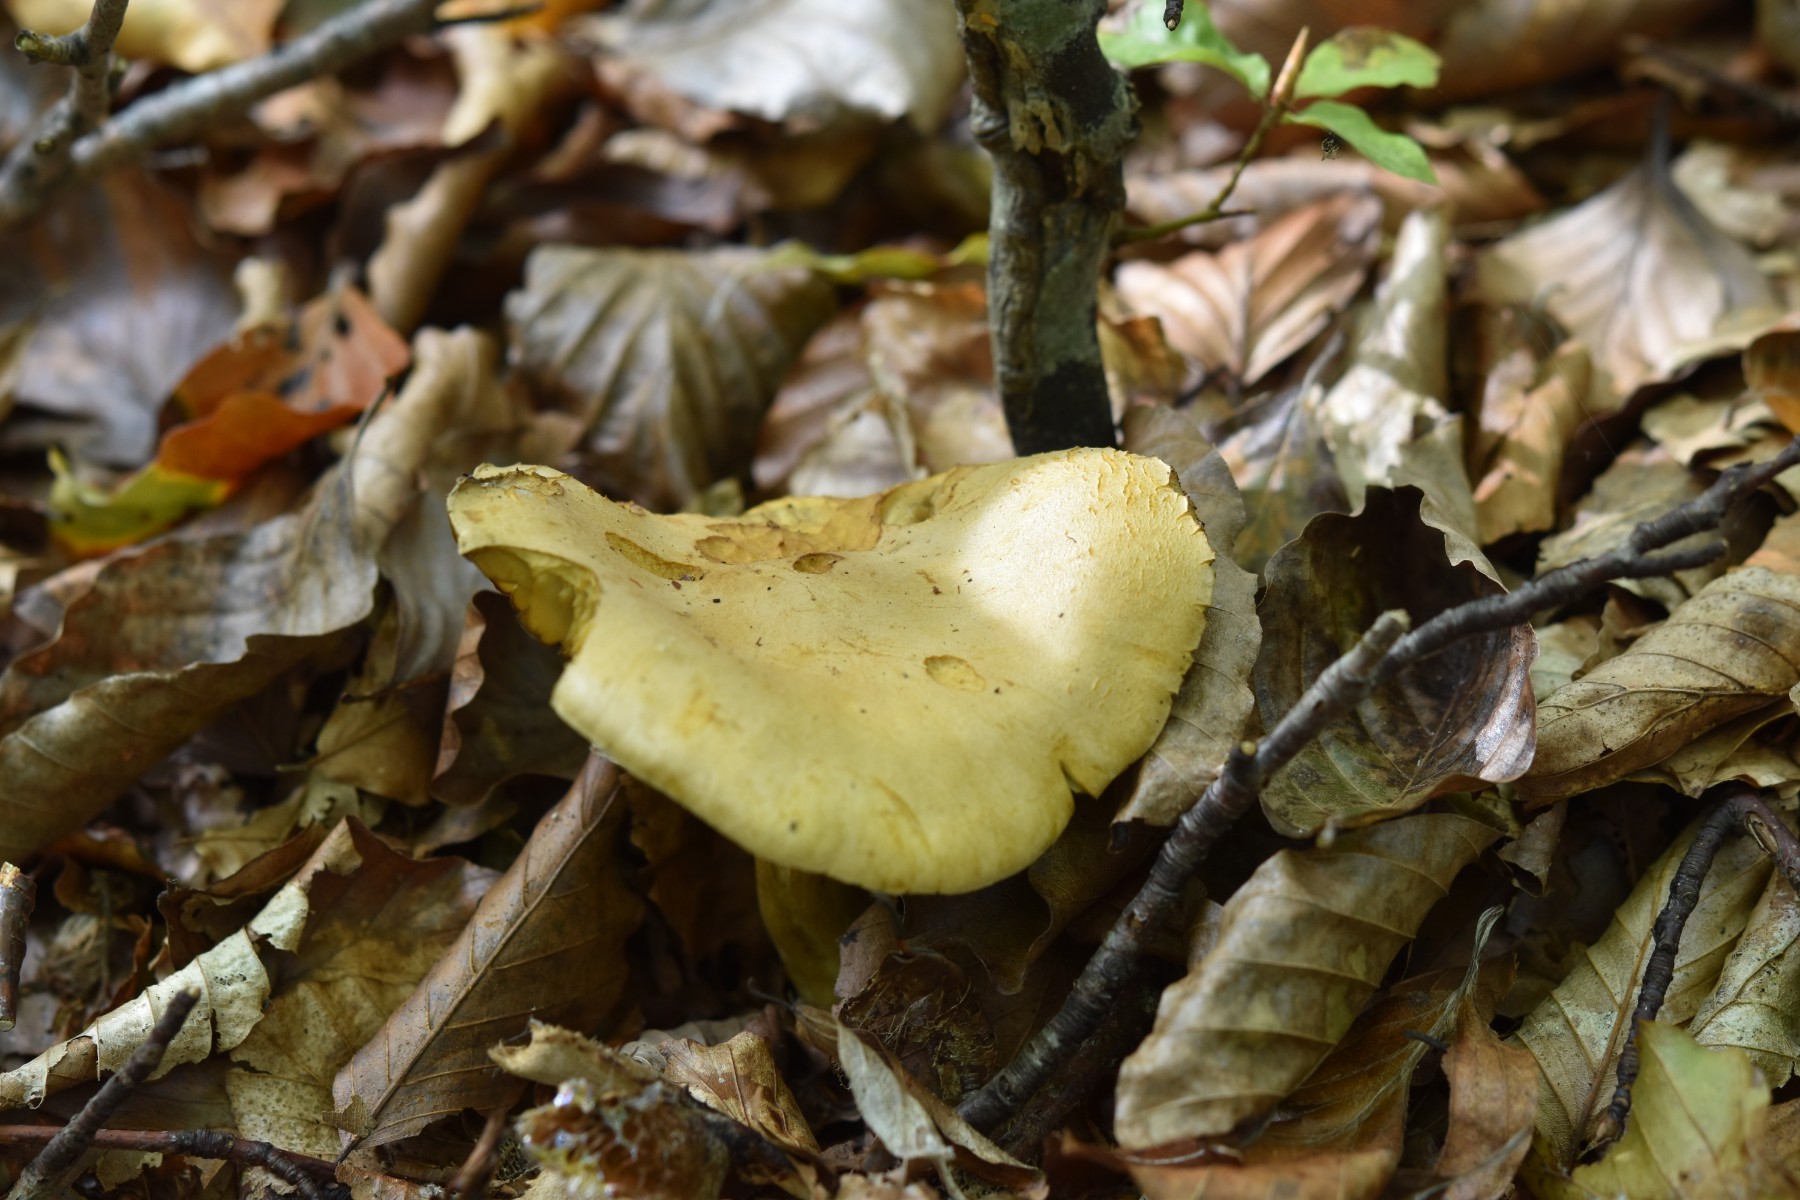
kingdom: Fungi
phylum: Basidiomycota
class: Agaricomycetes
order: Agaricales
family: Tricholomataceae
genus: Tricholoma
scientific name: Tricholoma sulphureum
